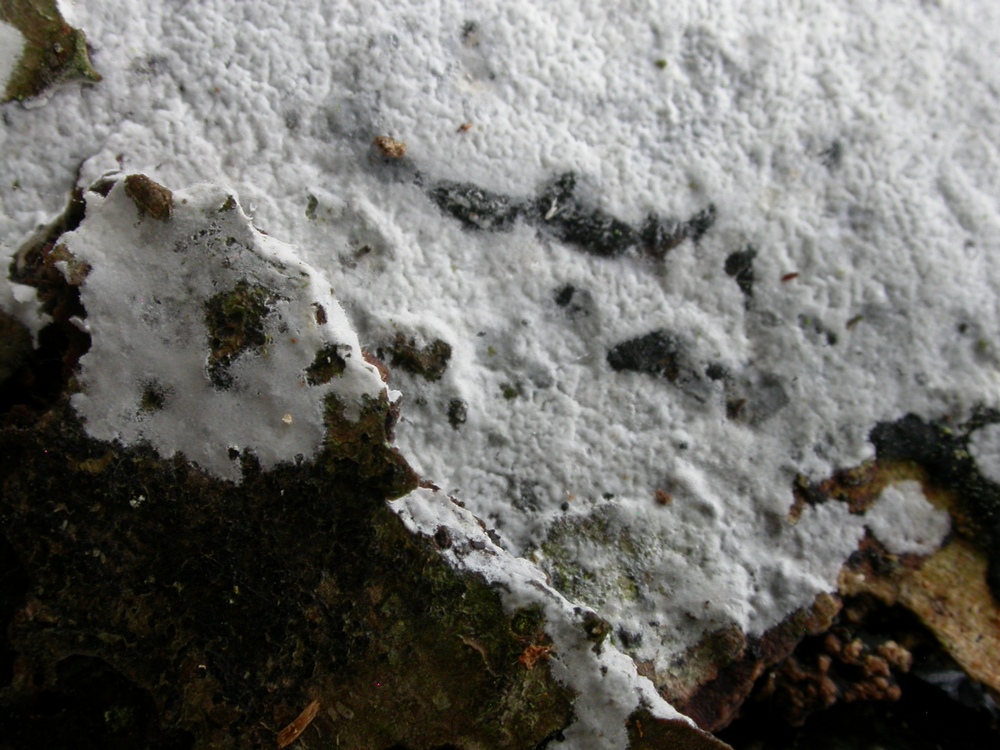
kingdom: Fungi
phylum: Basidiomycota
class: Agaricomycetes
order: Atheliales
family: Atheliaceae
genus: Athelia
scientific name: Athelia epiphylla
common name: almindelig barkhinde
